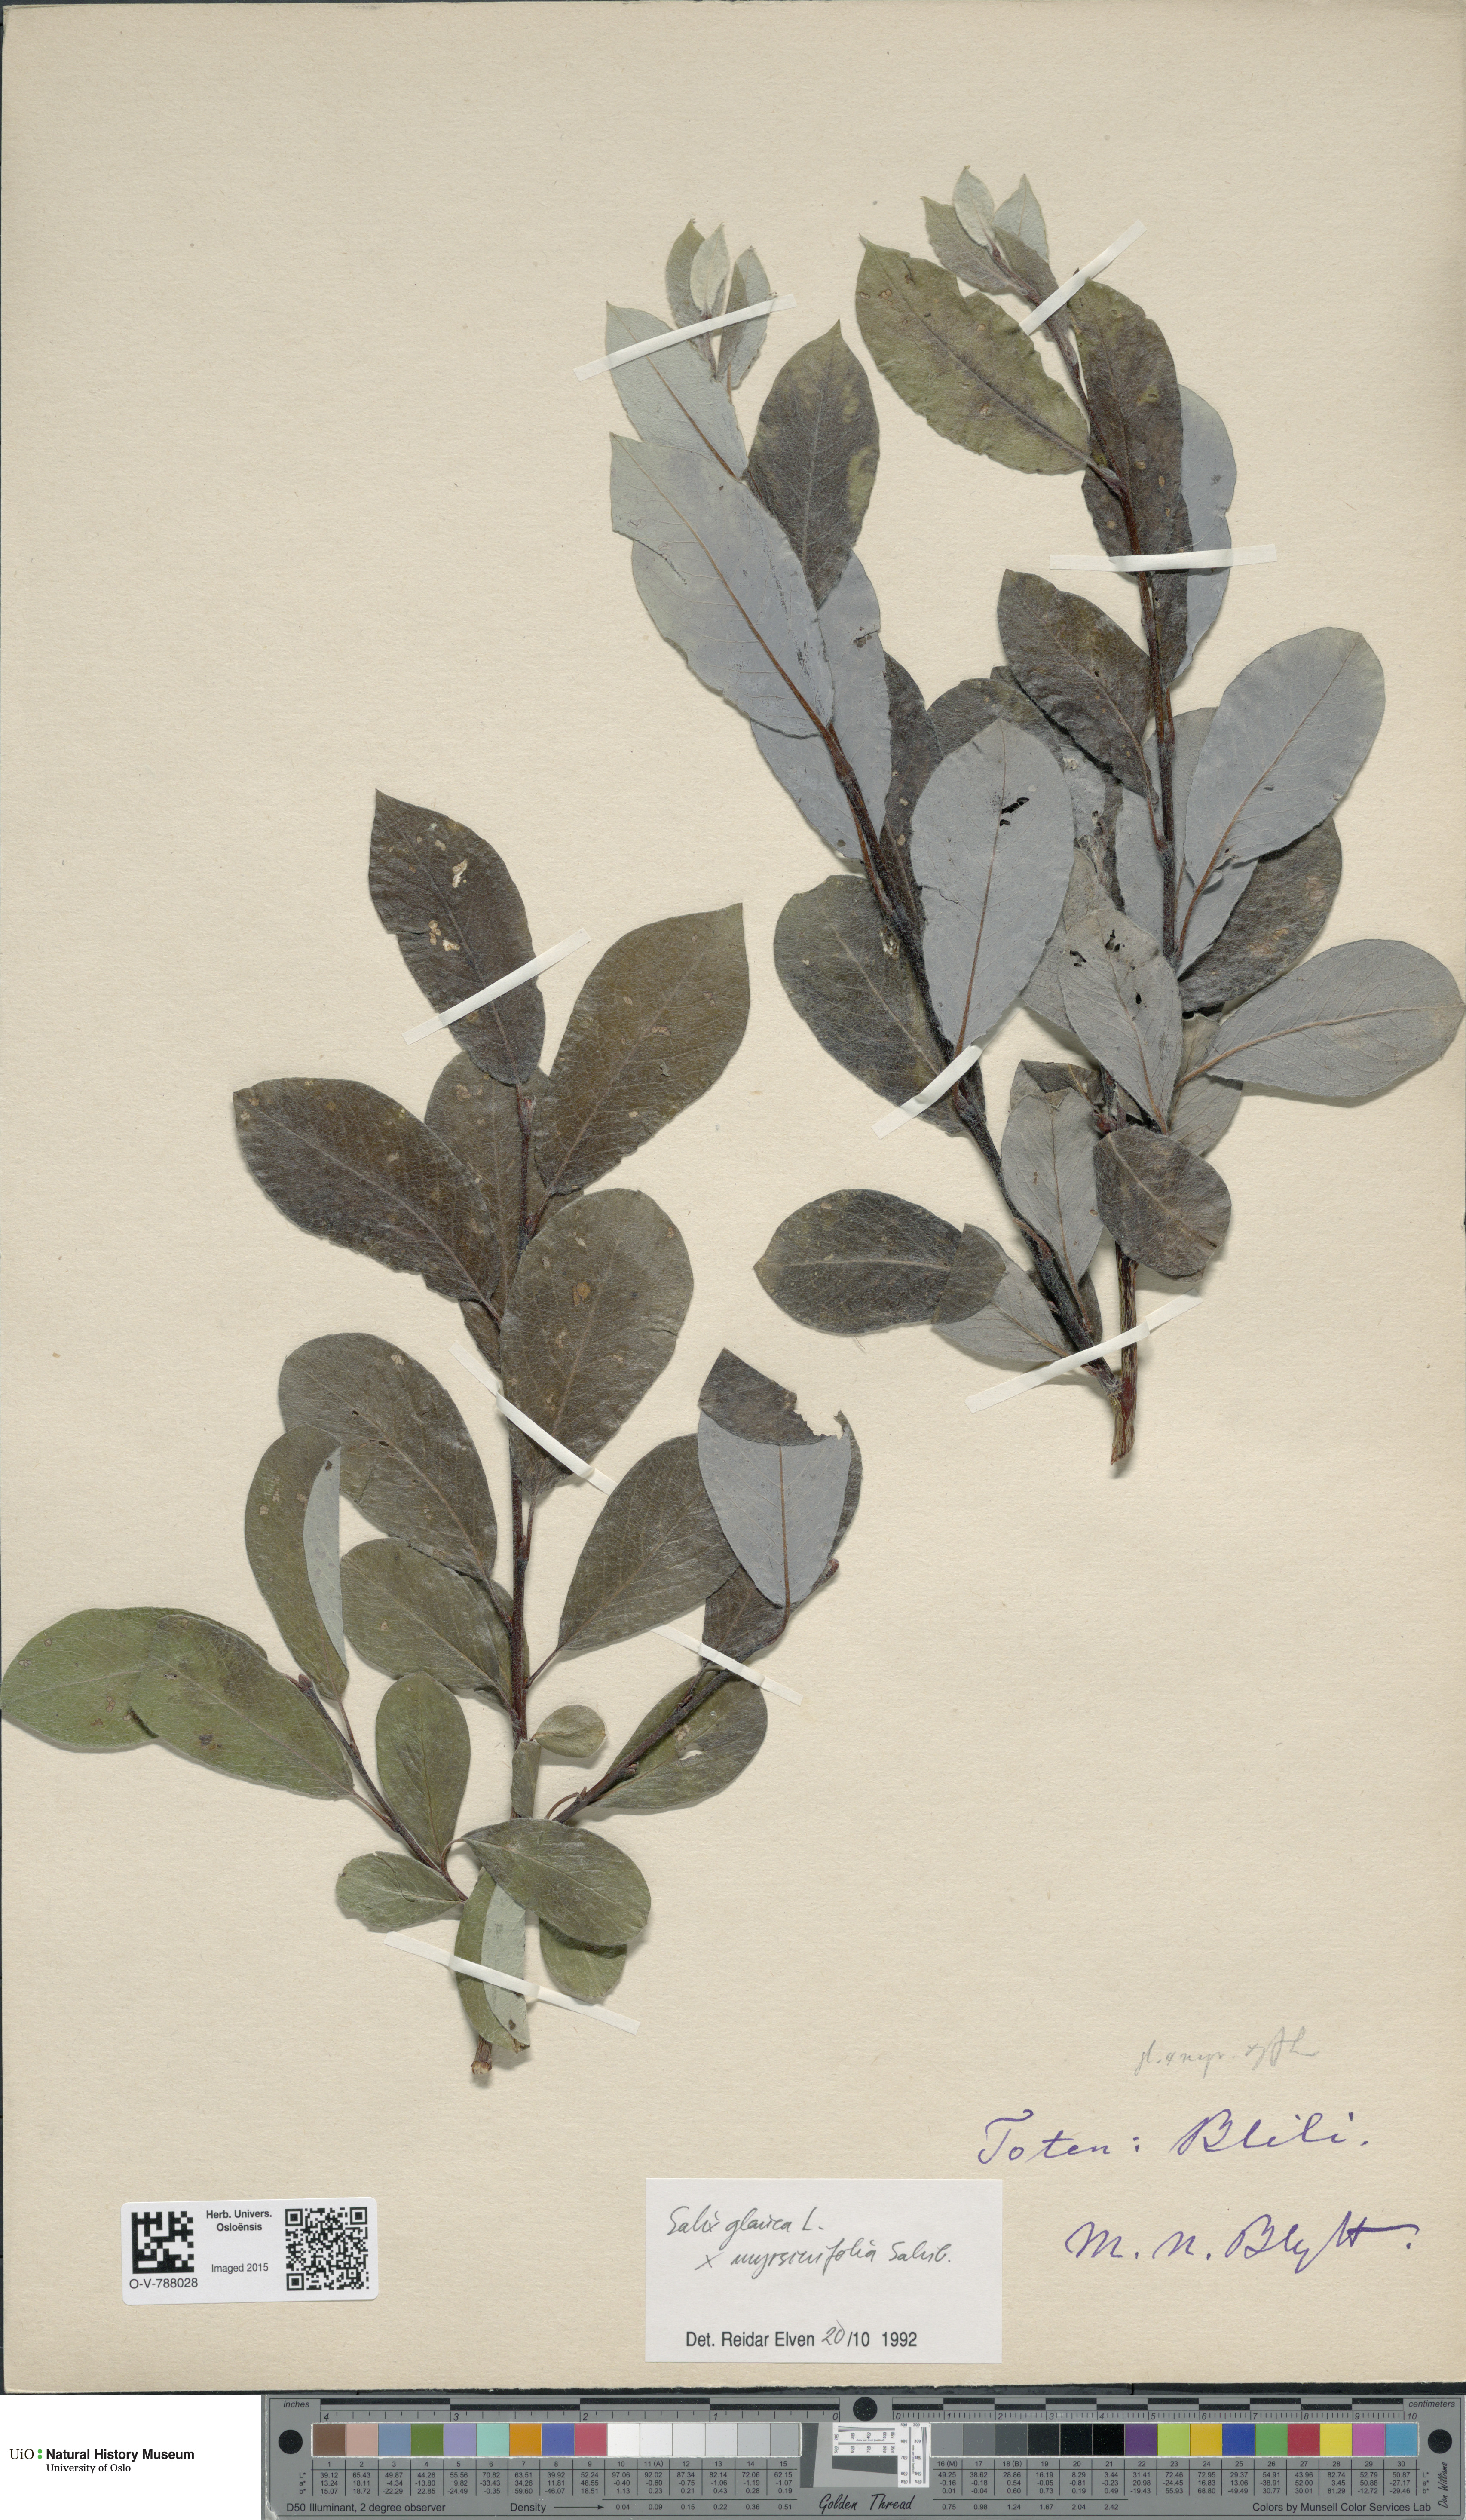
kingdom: Plantae
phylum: Tracheophyta
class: Magnoliopsida
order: Malpighiales
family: Salicaceae
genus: Salix
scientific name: Salix
